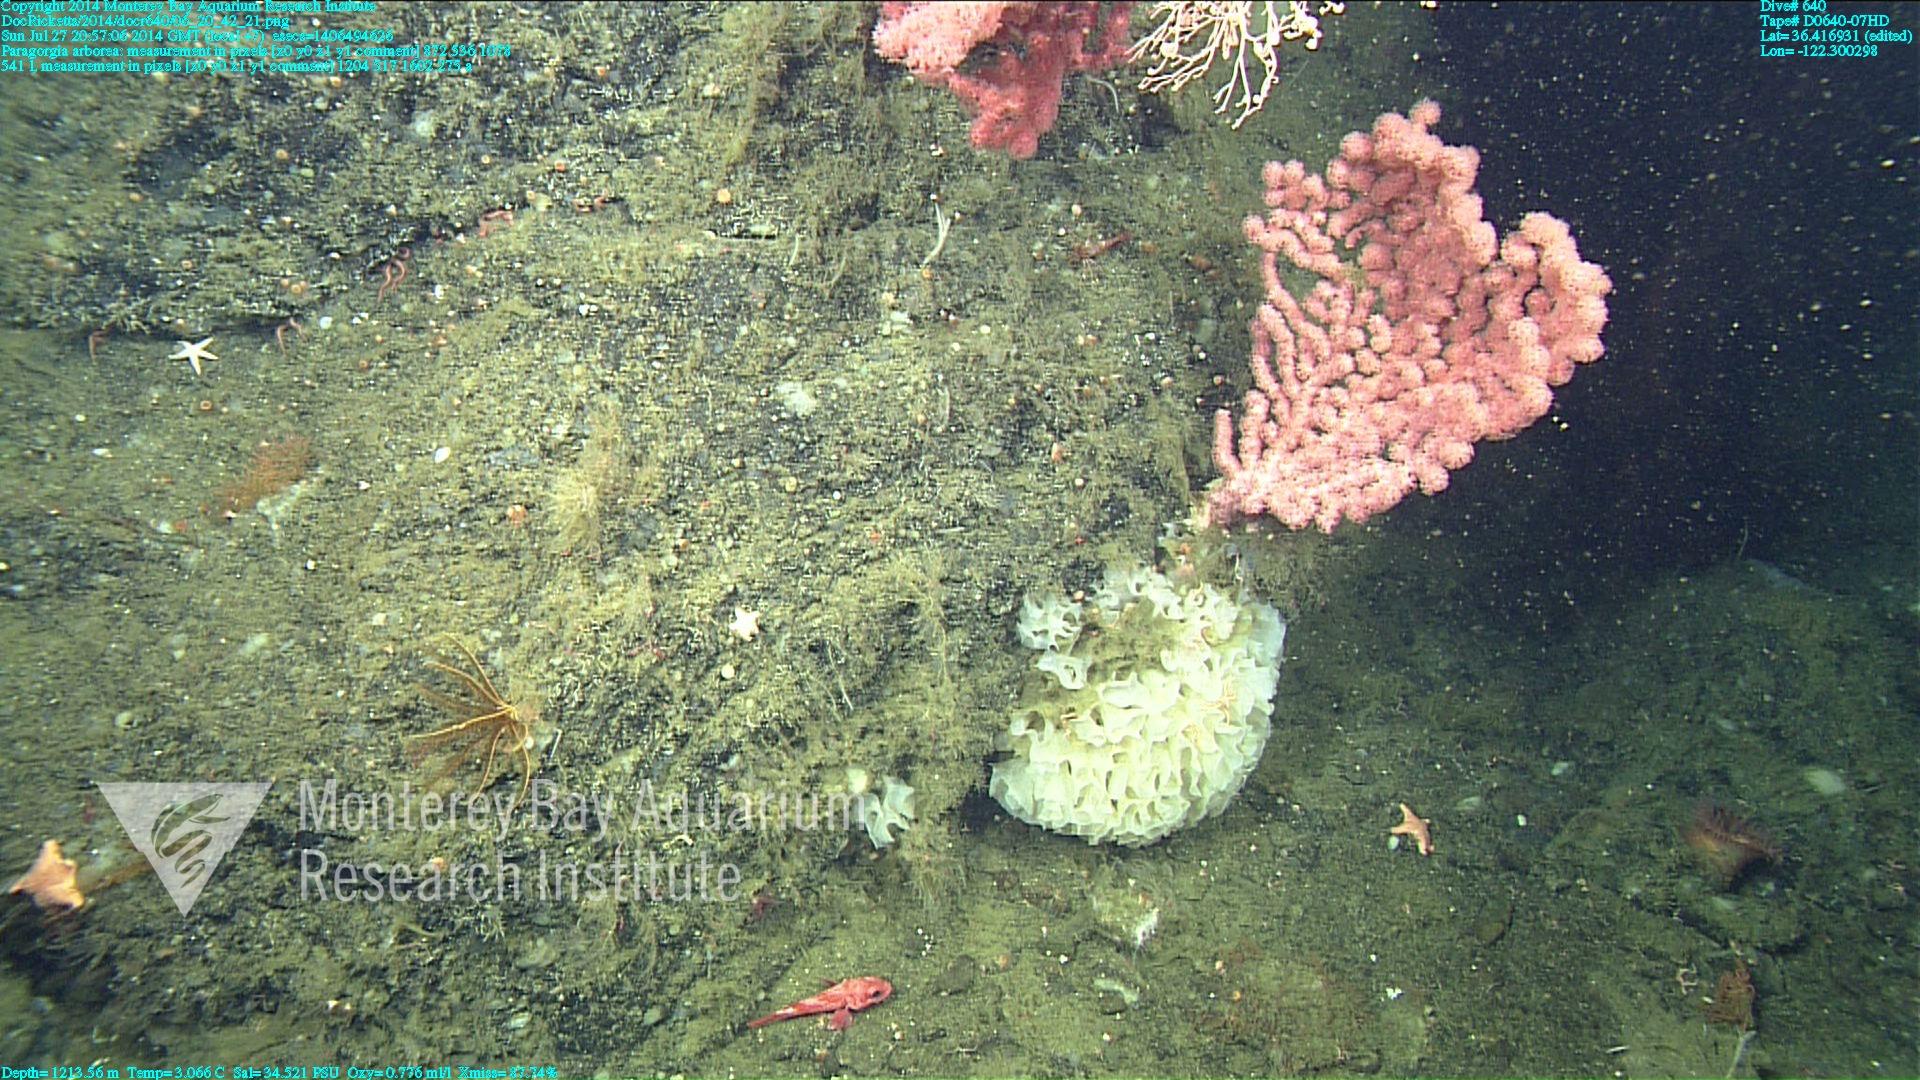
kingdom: Animalia
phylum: Cnidaria
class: Anthozoa
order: Scleralcyonacea
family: Coralliidae
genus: Paragorgia
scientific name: Paragorgia arborea
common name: Bubble gum coral
